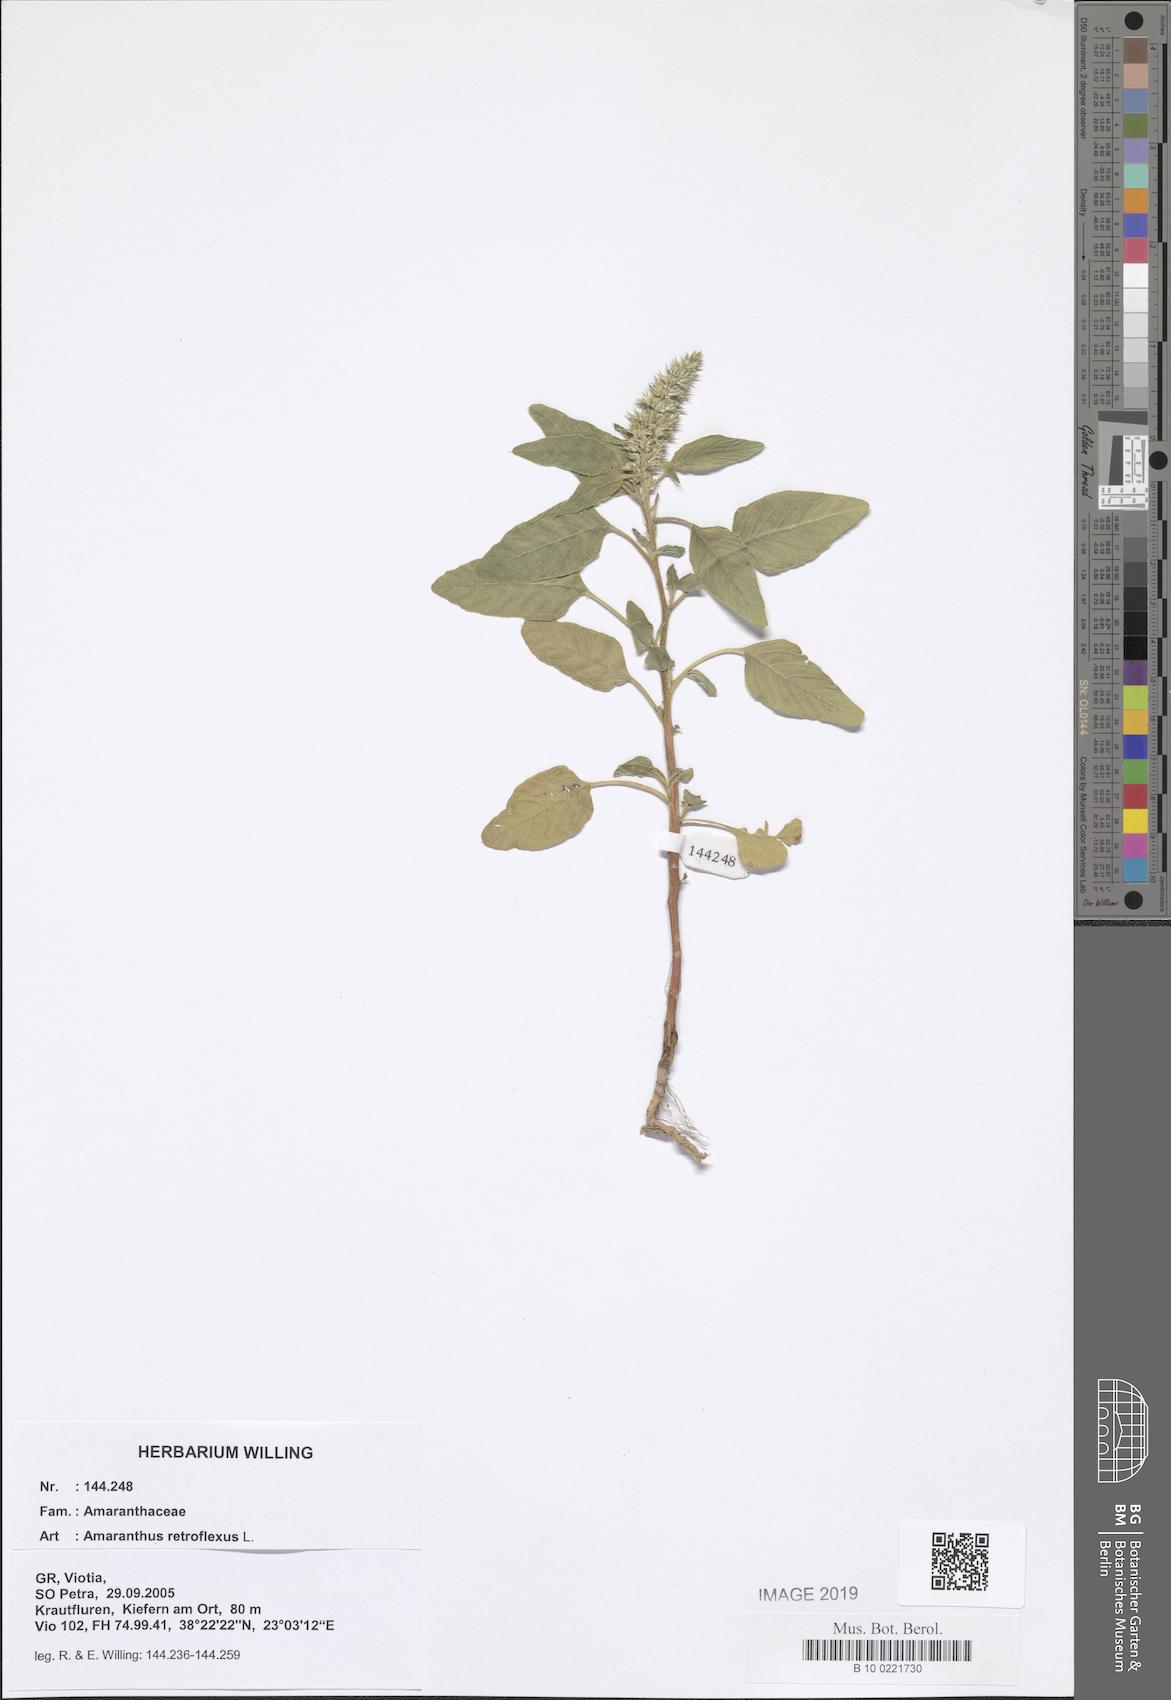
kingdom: Plantae
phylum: Tracheophyta
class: Magnoliopsida
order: Caryophyllales
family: Amaranthaceae
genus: Amaranthus
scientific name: Amaranthus retroflexus
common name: Redroot amaranth
